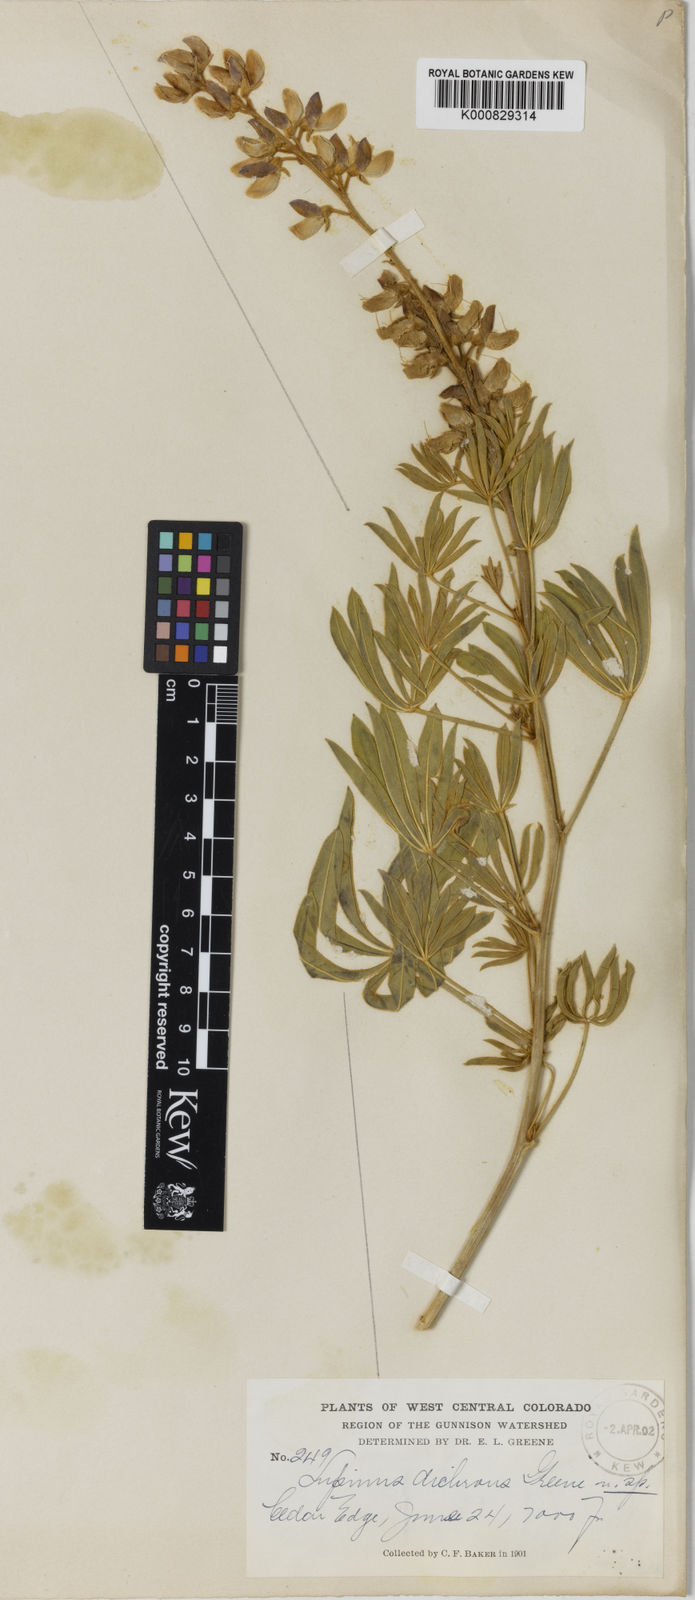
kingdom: Plantae
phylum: Tracheophyta
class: Magnoliopsida
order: Fabales
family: Fabaceae
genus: Lupinus
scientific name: Lupinus sericeus
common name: Silky lupine
